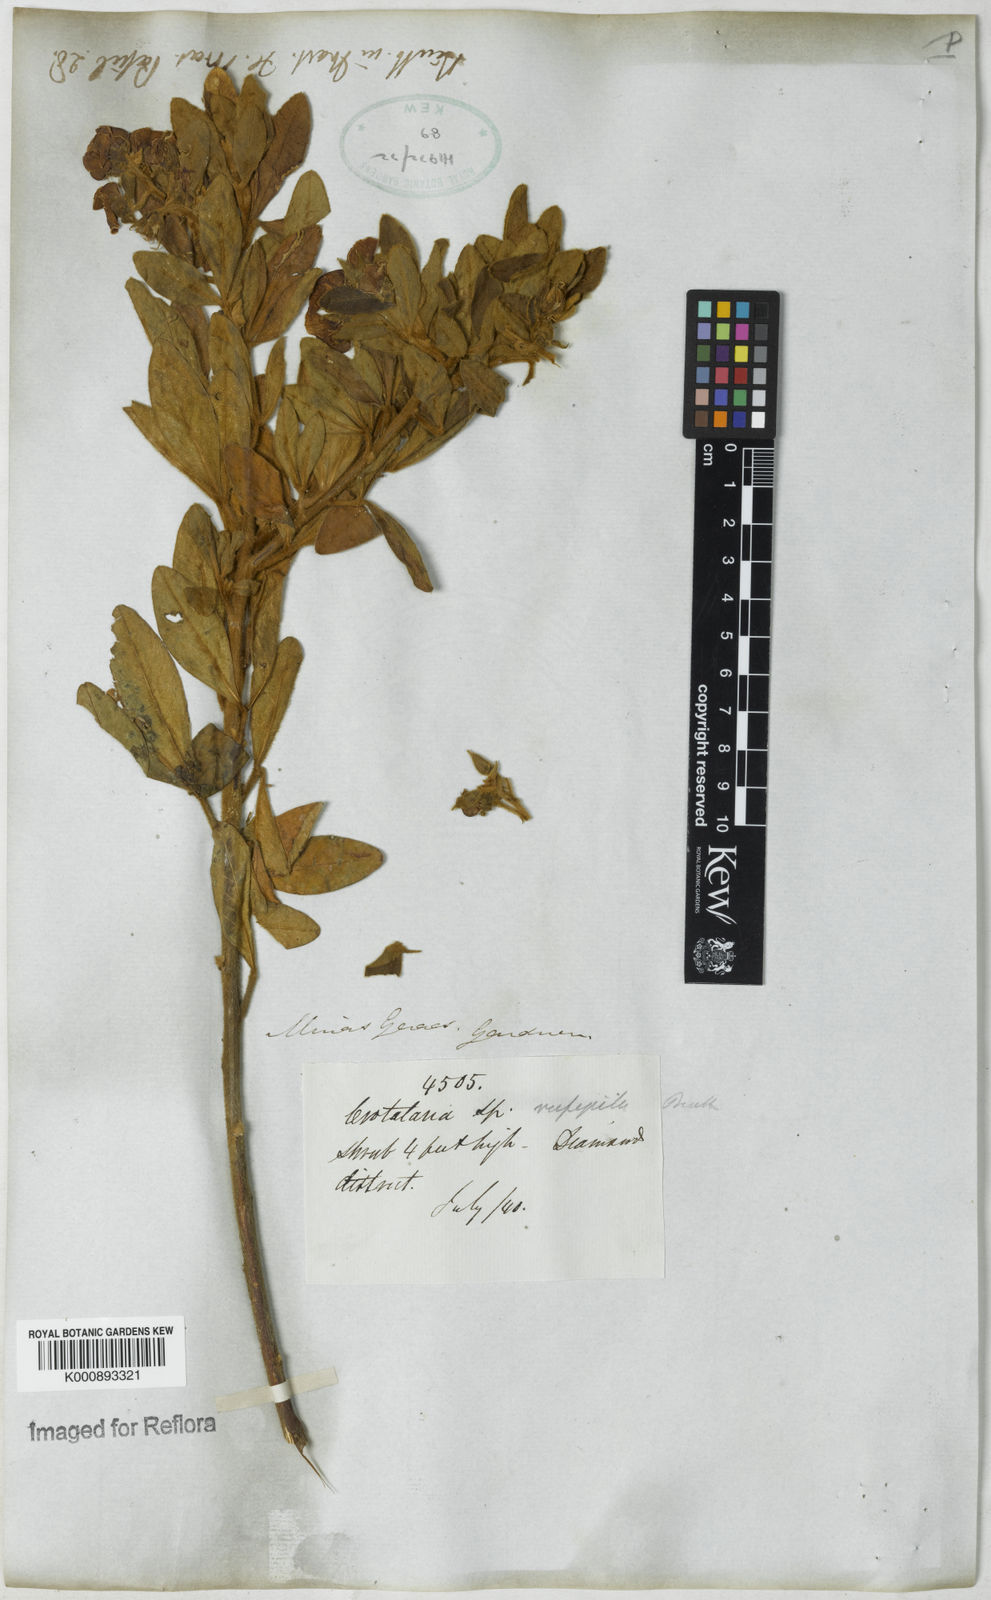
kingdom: Plantae
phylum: Tracheophyta
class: Magnoliopsida
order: Fabales
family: Fabaceae
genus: Crotalaria
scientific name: Crotalaria rufipila
